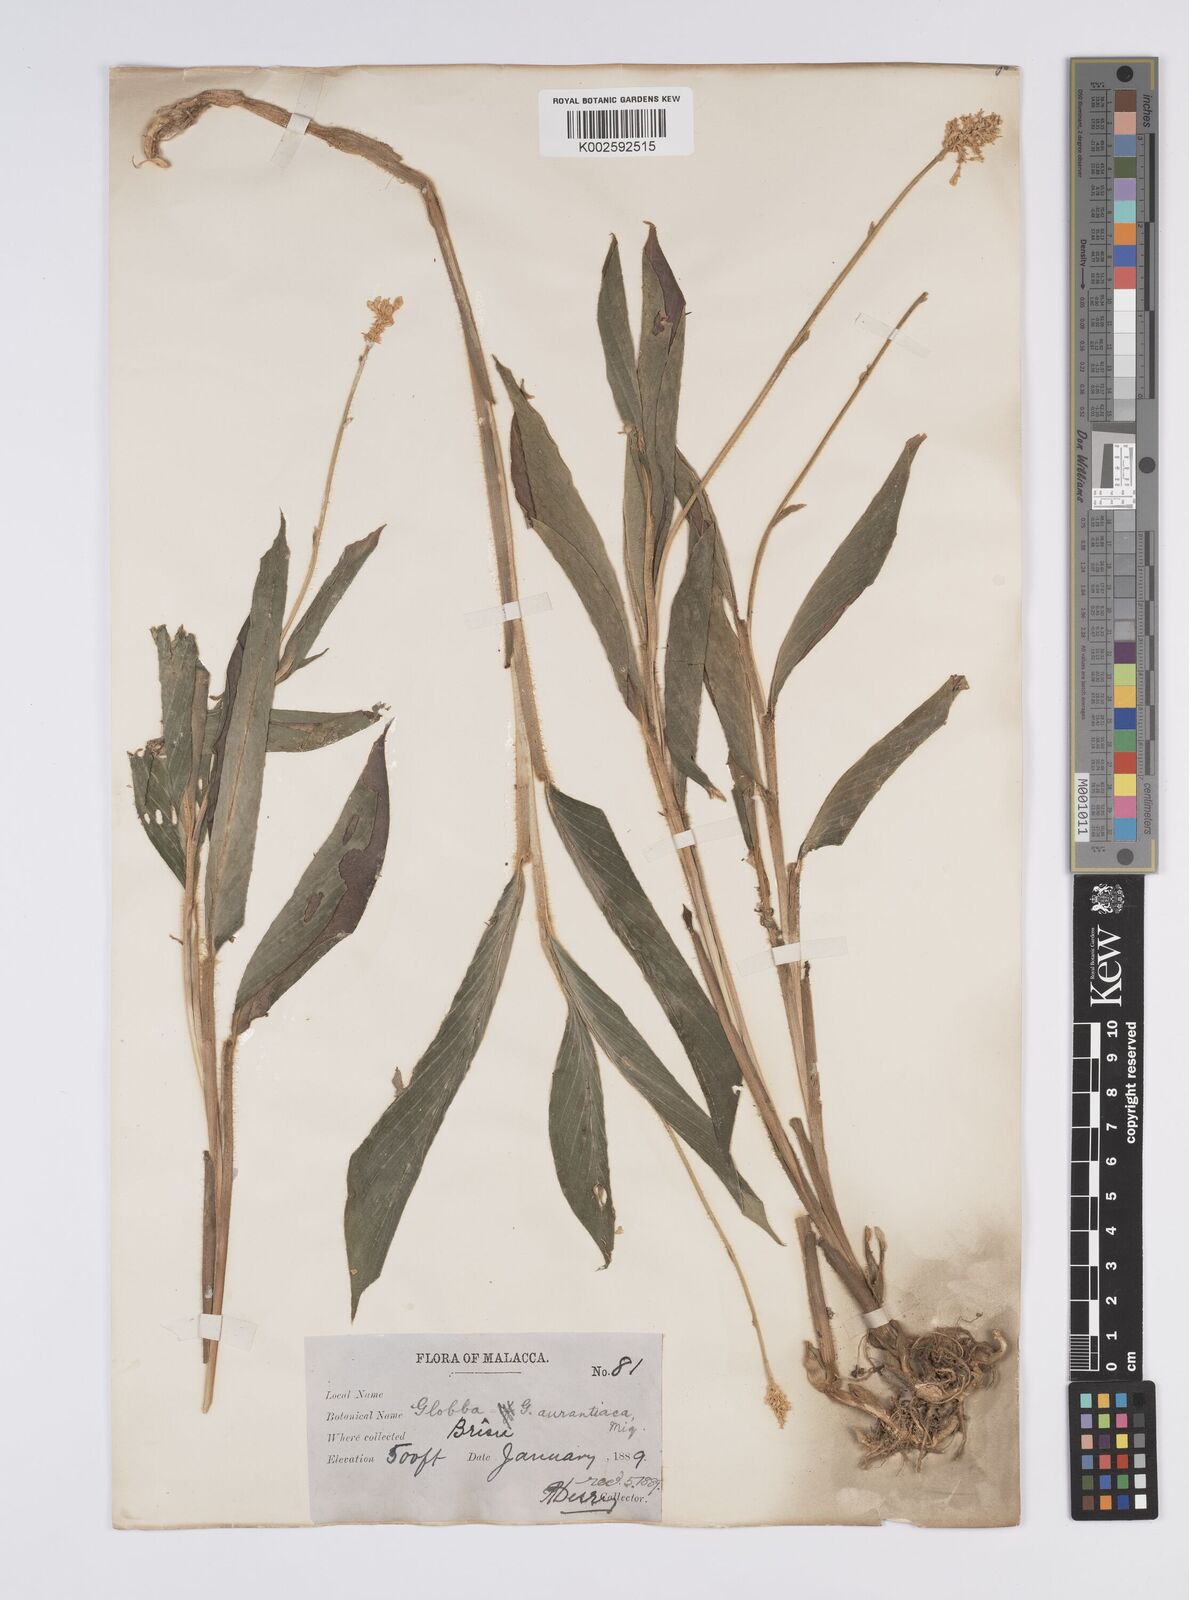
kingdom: Plantae
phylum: Tracheophyta
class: Liliopsida
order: Zingiberales
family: Zingiberaceae
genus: Globba
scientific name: Globba aurantiaca
